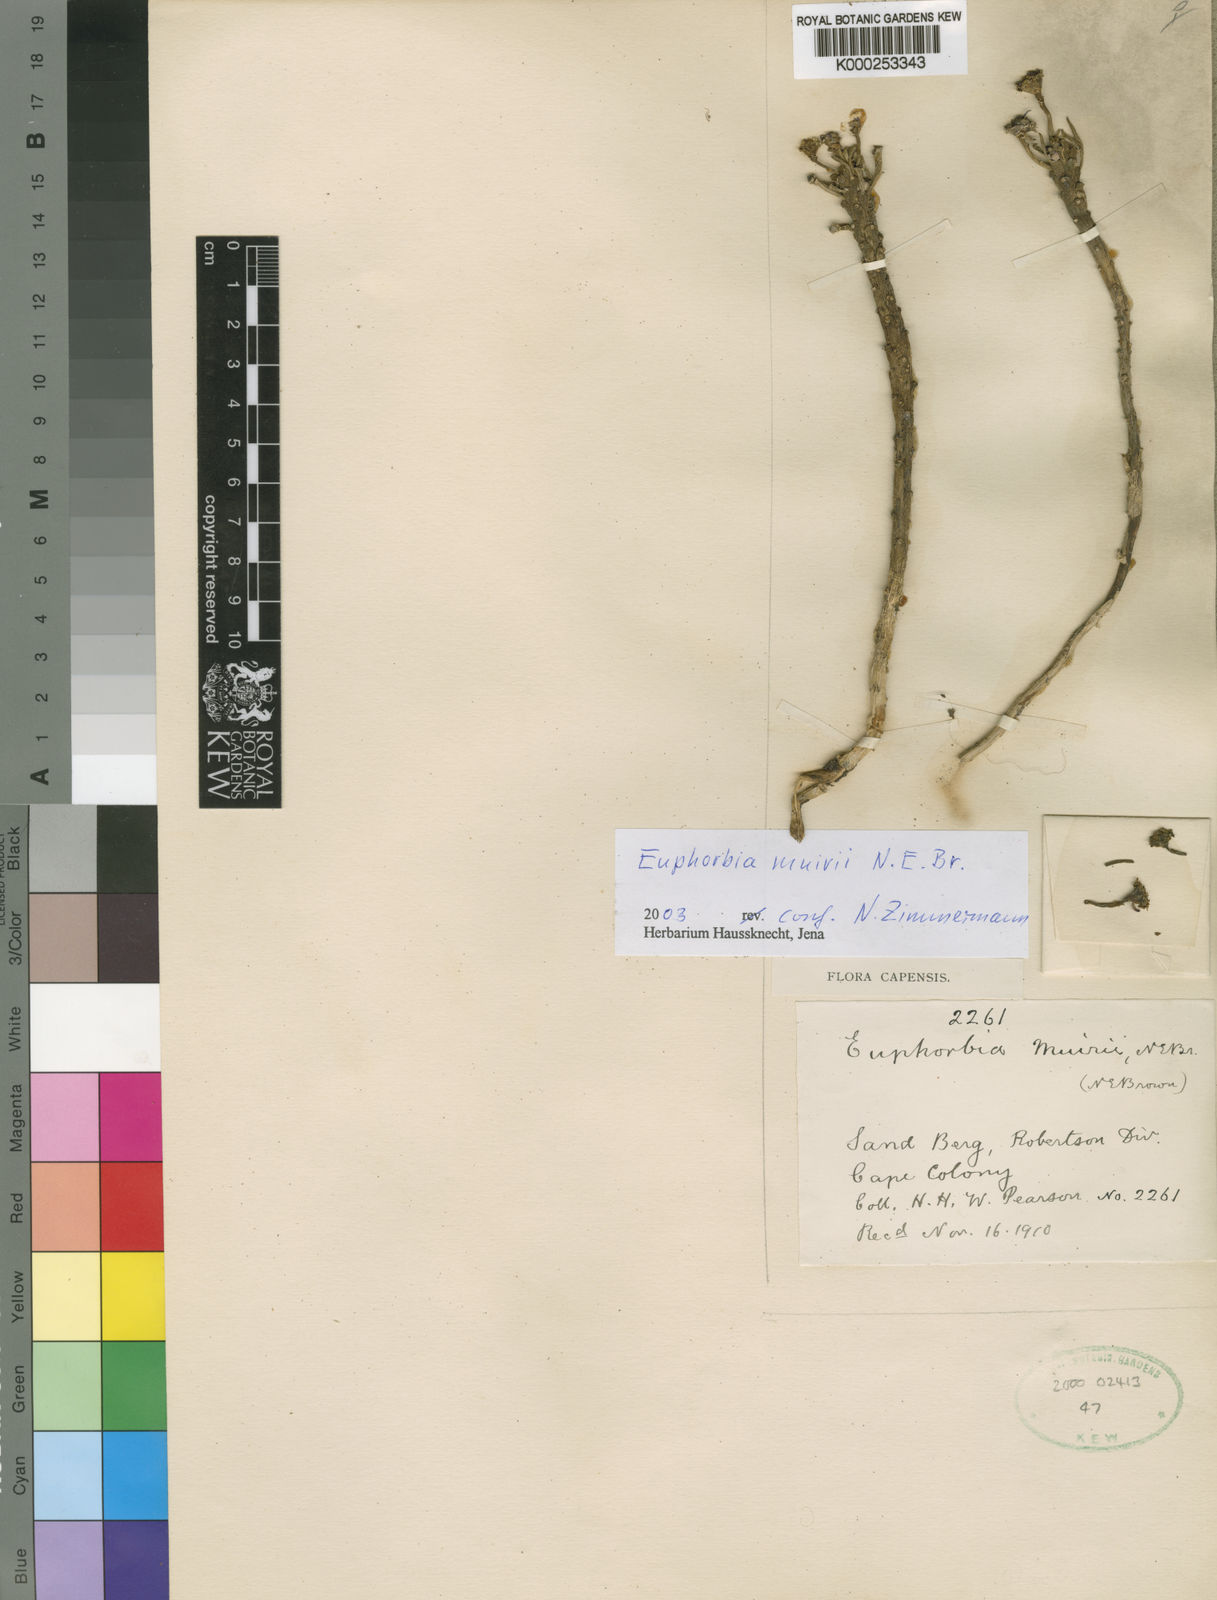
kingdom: Plantae
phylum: Tracheophyta
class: Magnoliopsida
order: Malpighiales
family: Euphorbiaceae
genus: Euphorbia
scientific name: Euphorbia caput-medusae
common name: Medusa's-head
